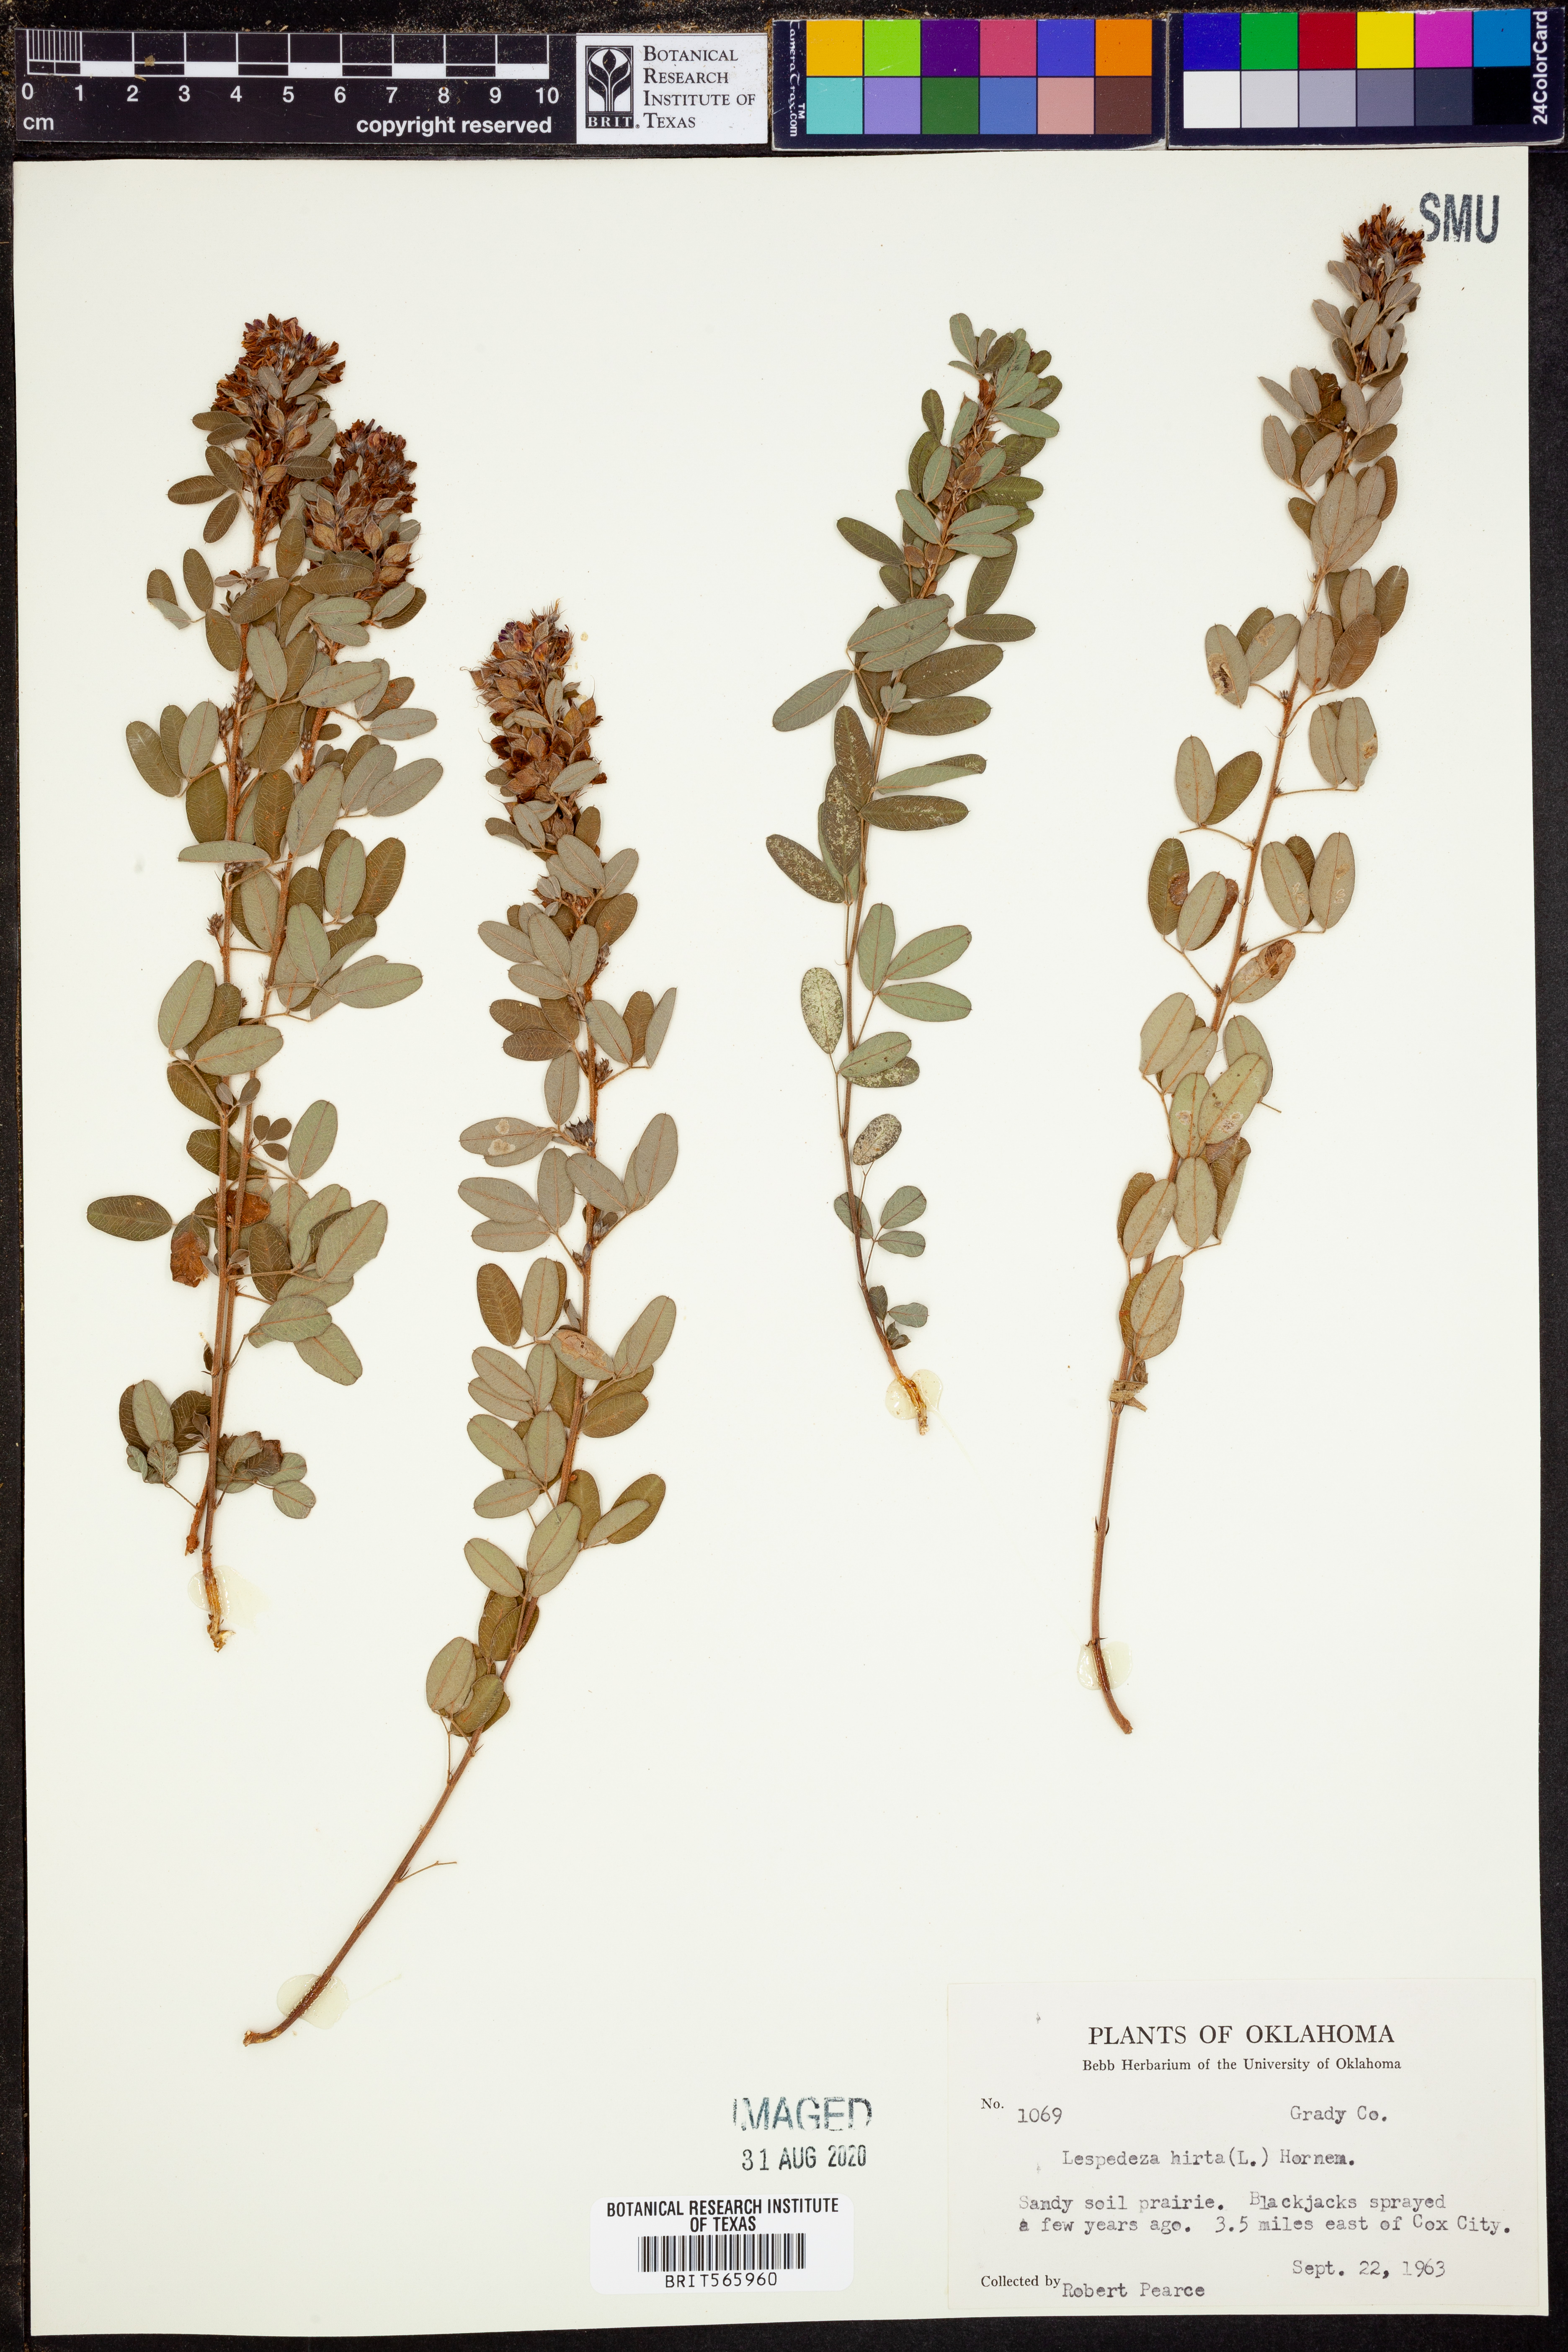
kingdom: Plantae
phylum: Tracheophyta
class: Magnoliopsida
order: Fabales
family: Fabaceae
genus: Lespedeza
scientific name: Lespedeza hirta
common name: Hairy lespedeza
